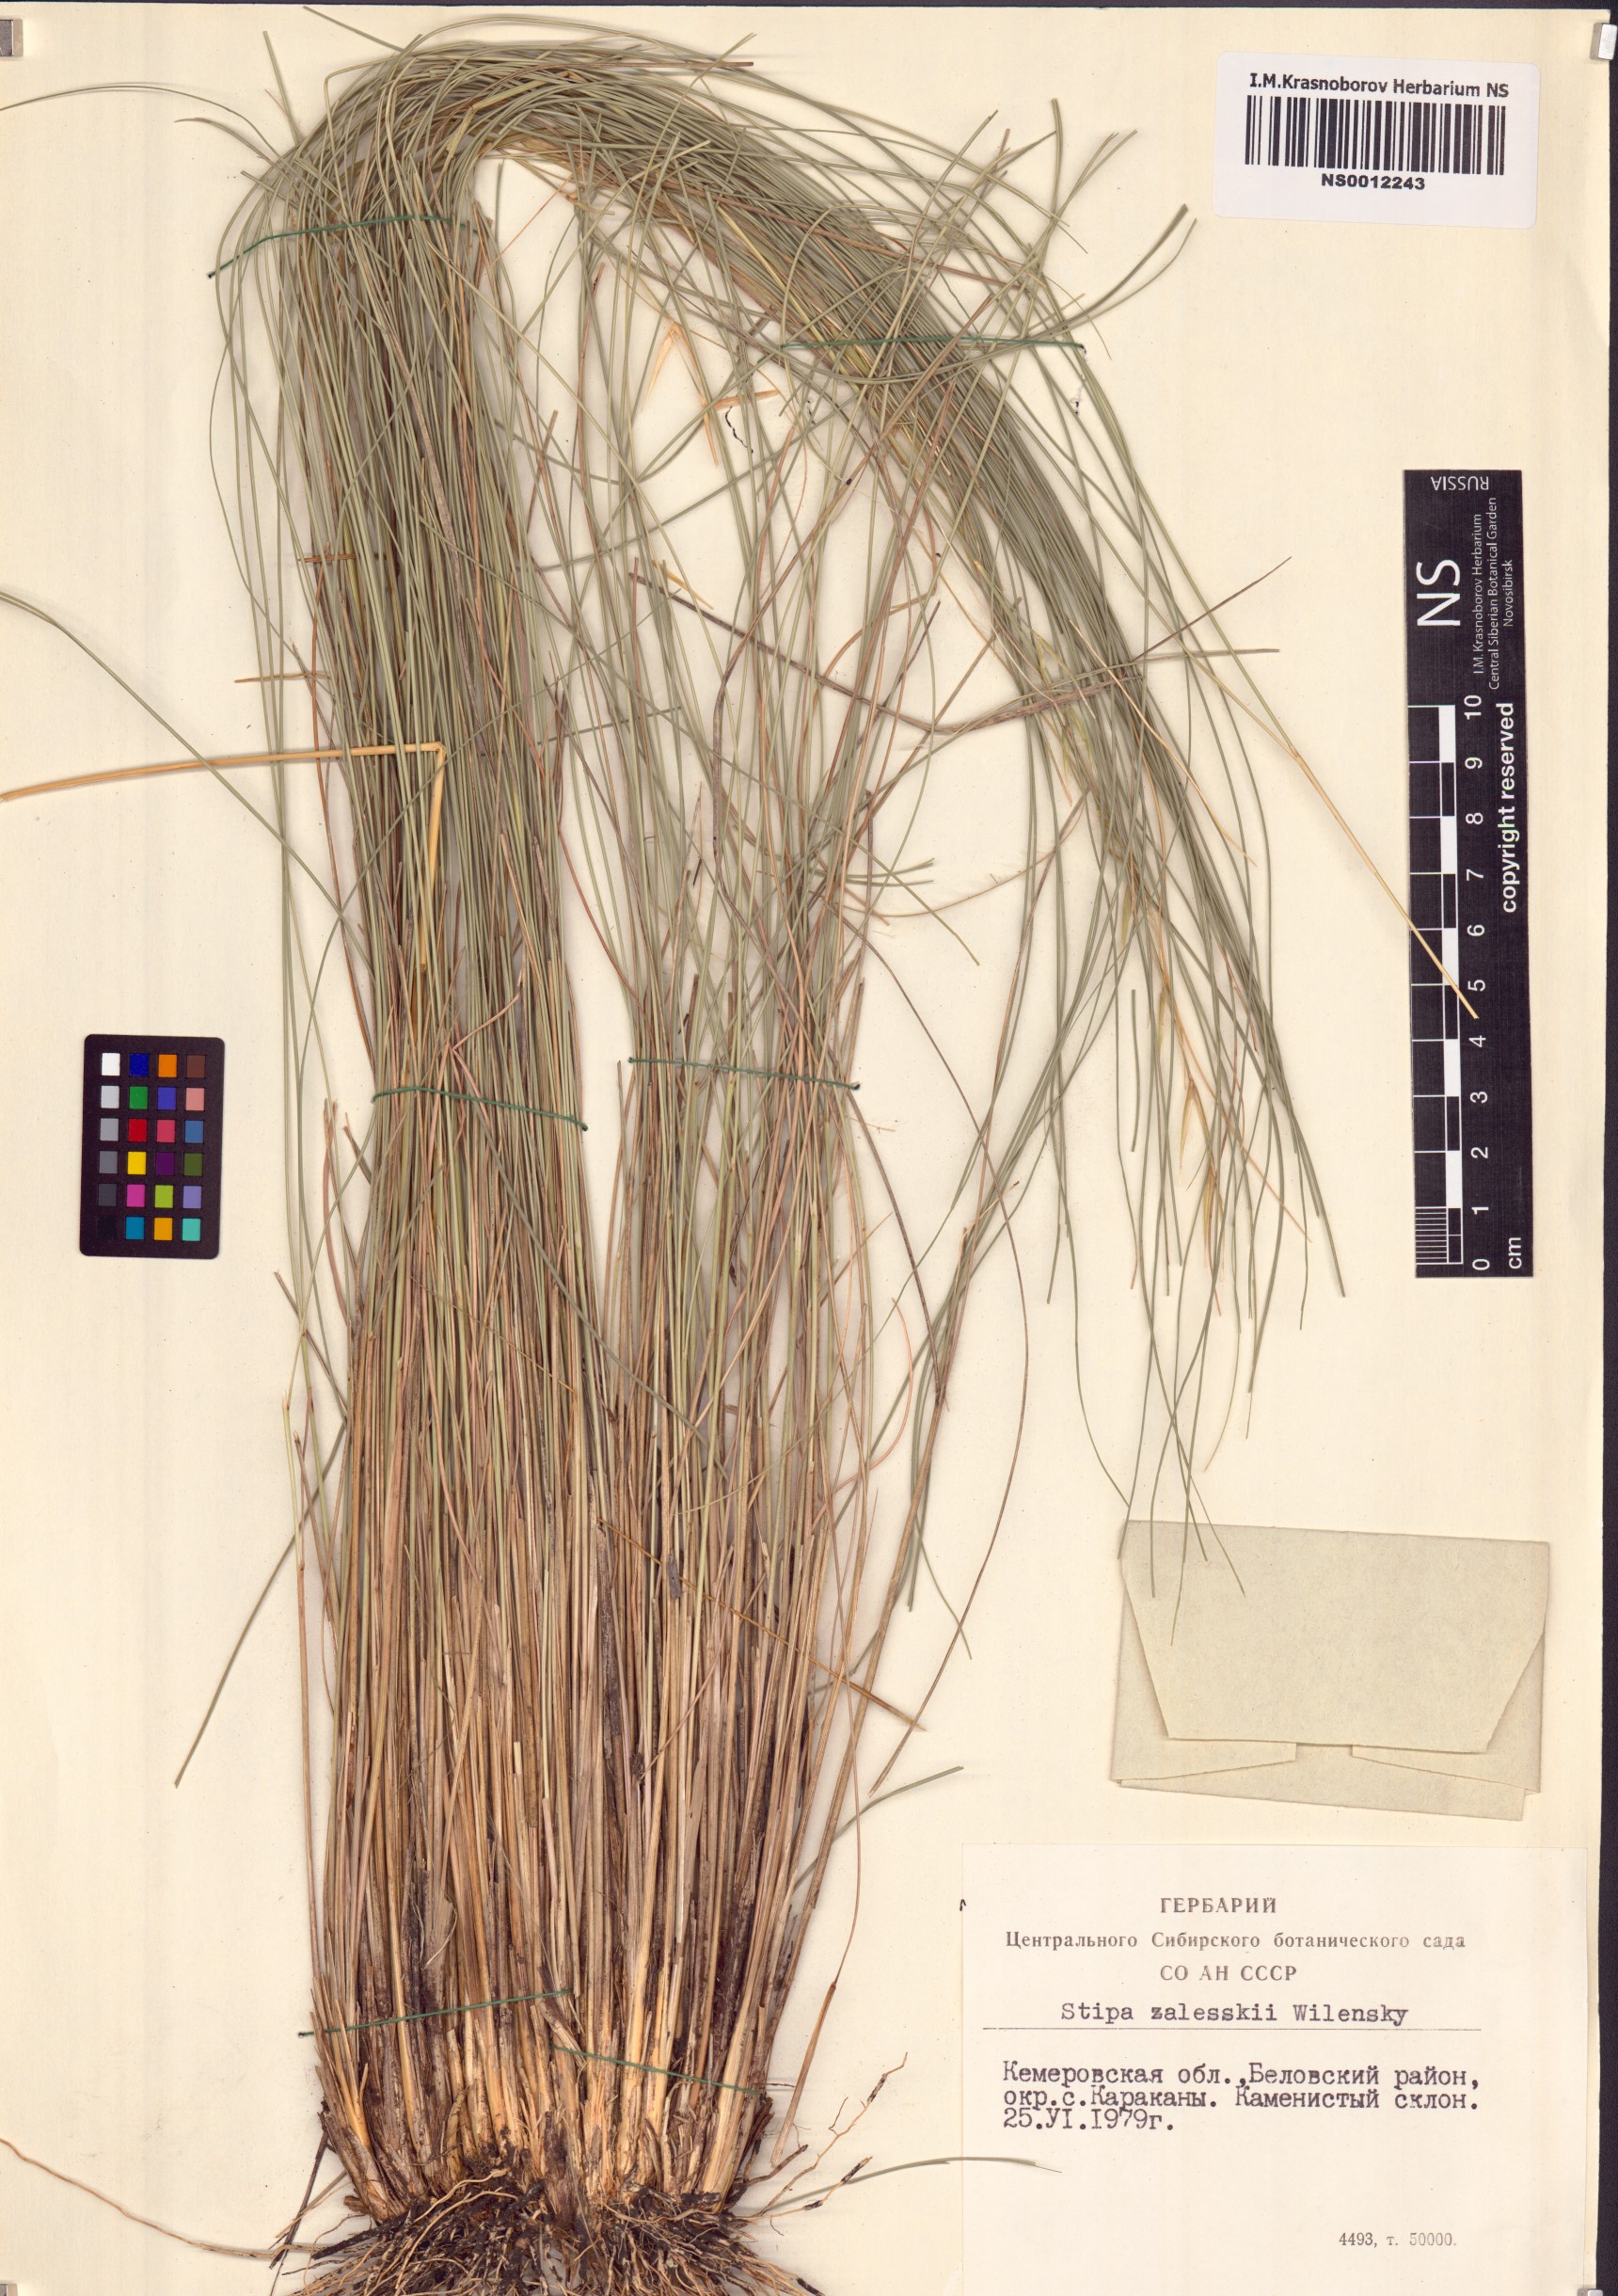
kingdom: Plantae
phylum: Tracheophyta
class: Liliopsida
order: Poales
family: Poaceae
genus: Stipa
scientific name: Stipa zalesskii
